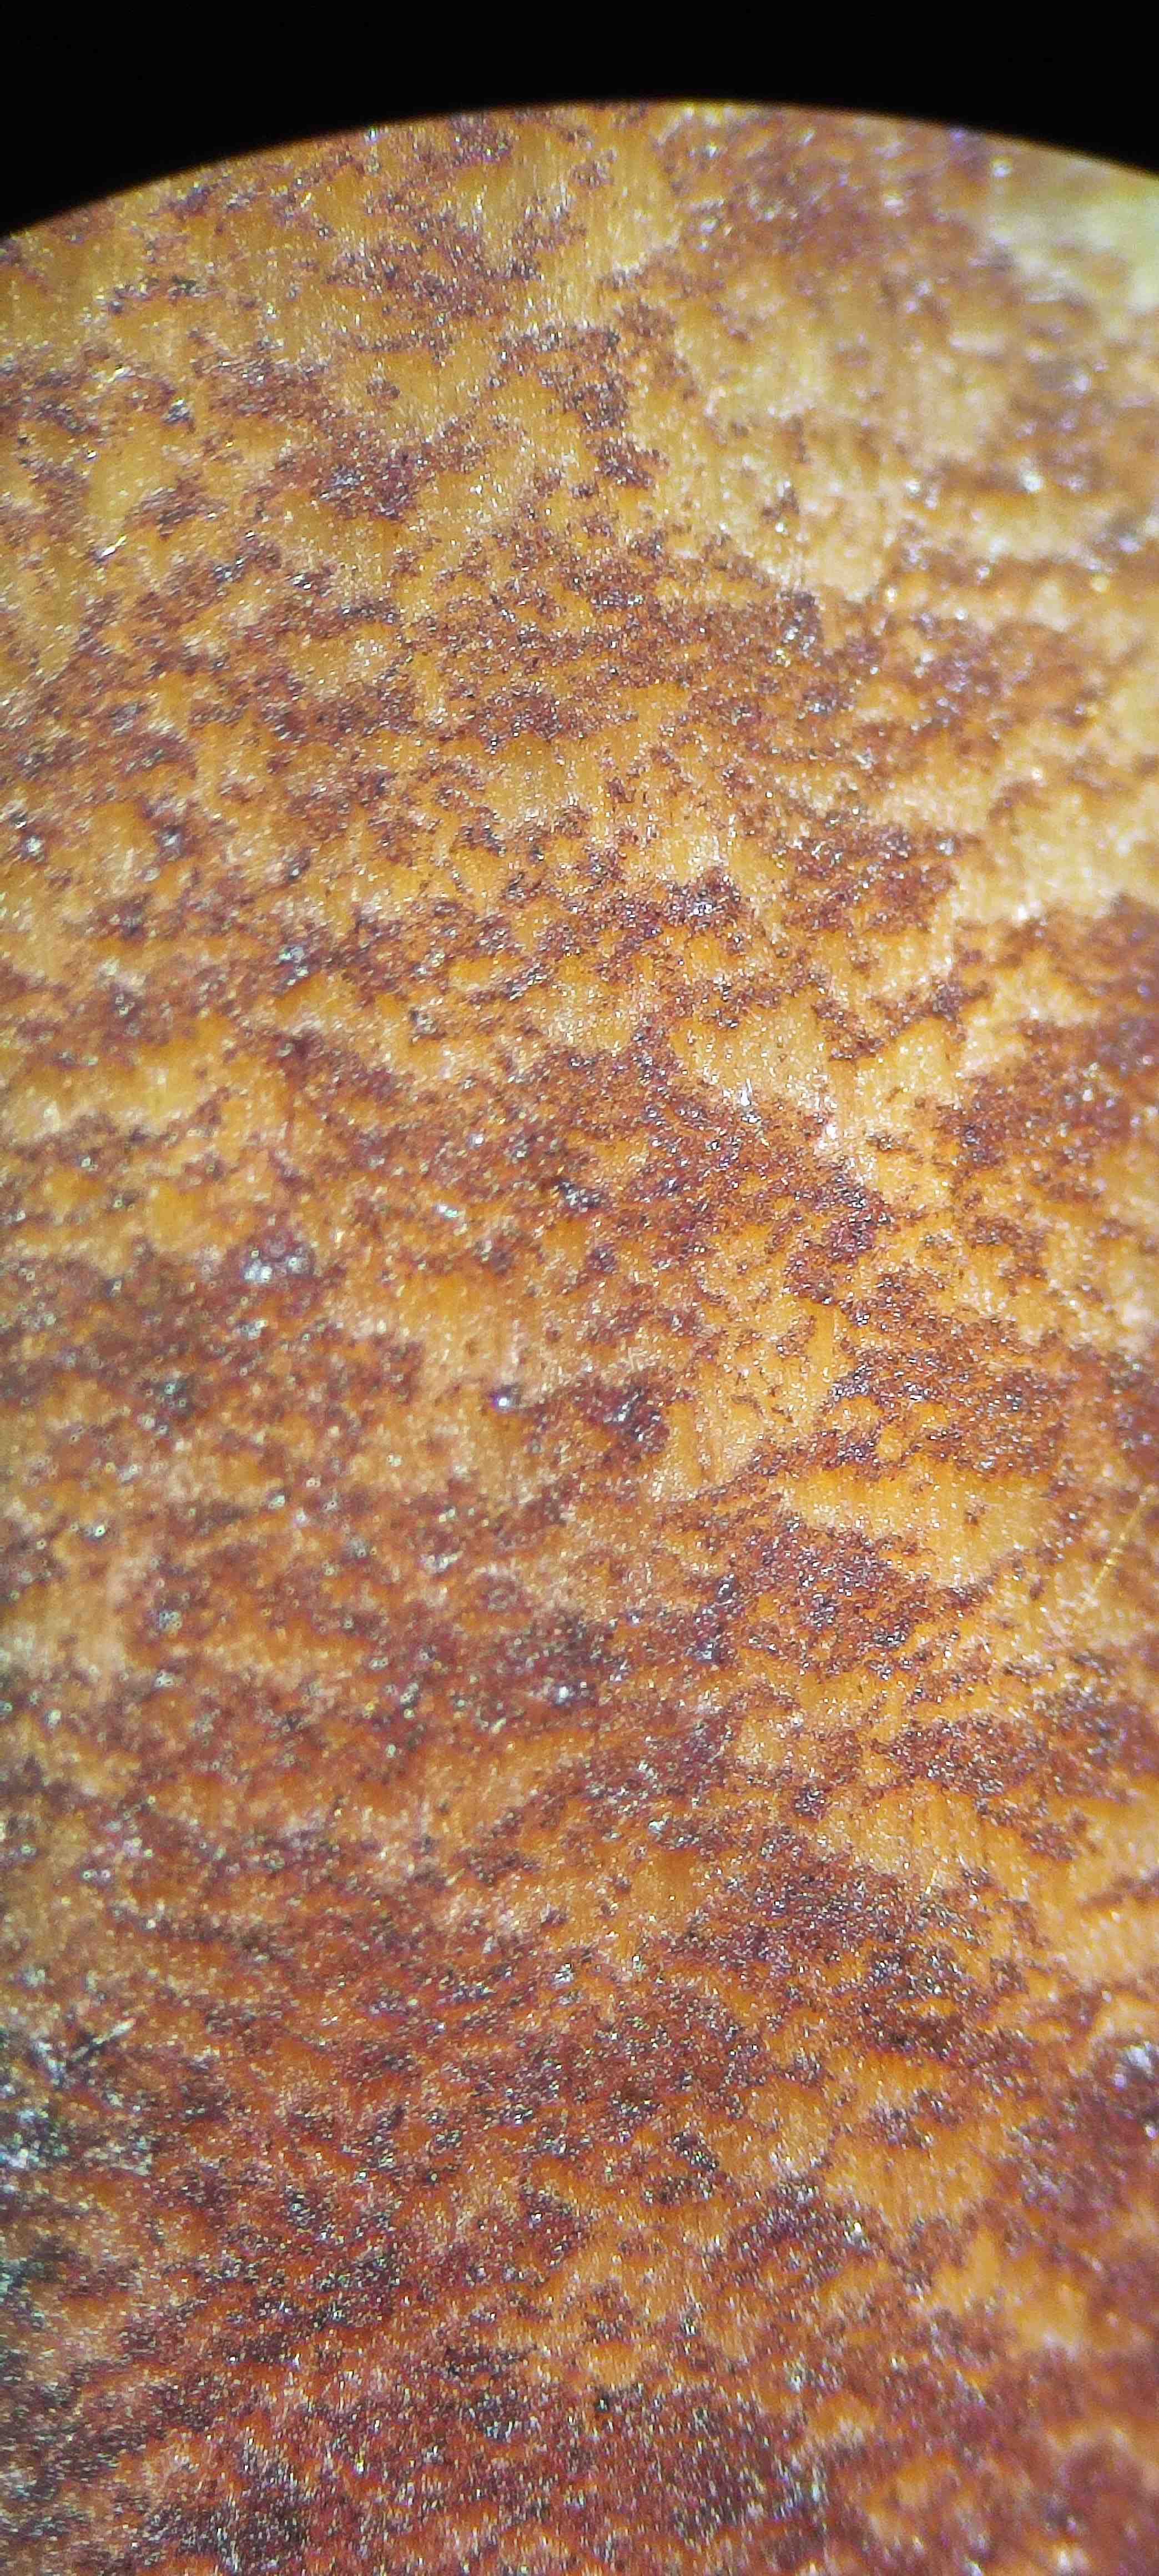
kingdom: Fungi
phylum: Basidiomycota
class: Agaricomycetes
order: Boletales
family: Boletaceae
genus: Neoboletus
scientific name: Neoboletus
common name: indigorørhat
